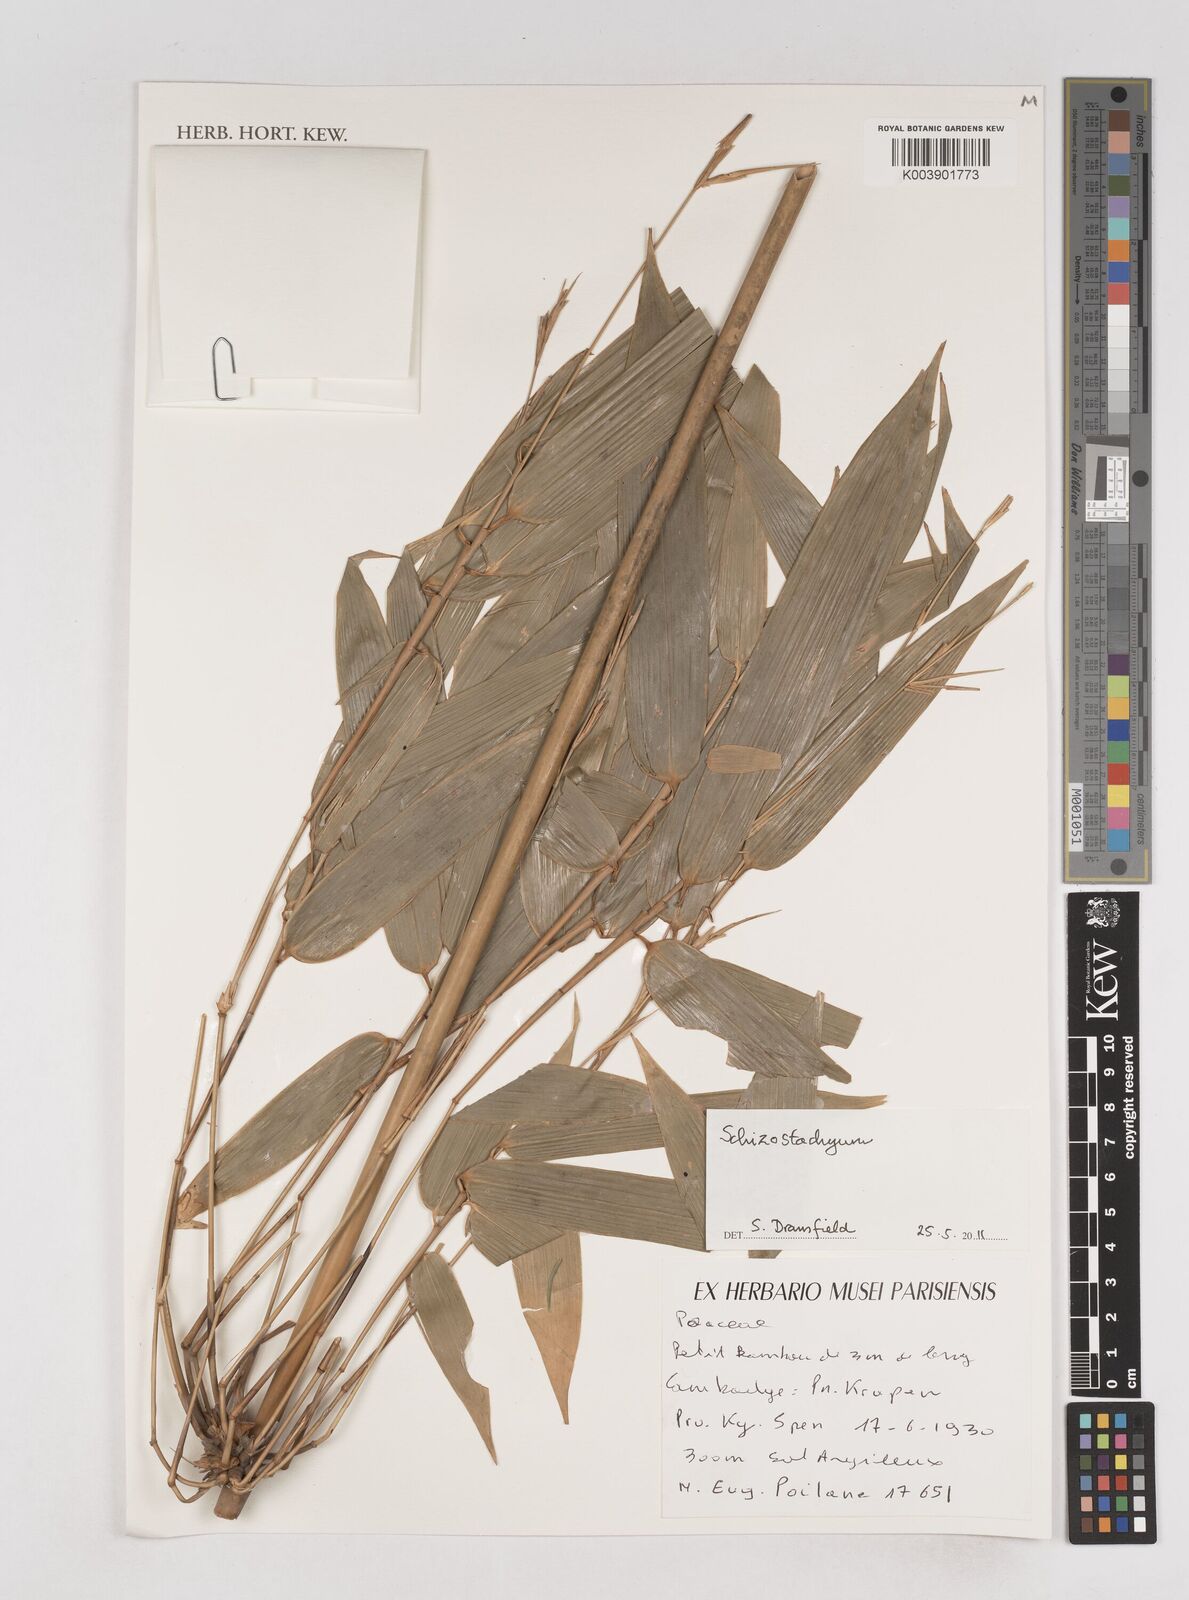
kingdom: Plantae
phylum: Tracheophyta
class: Liliopsida
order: Poales
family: Poaceae
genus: Schizostachyum
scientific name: Schizostachyum
